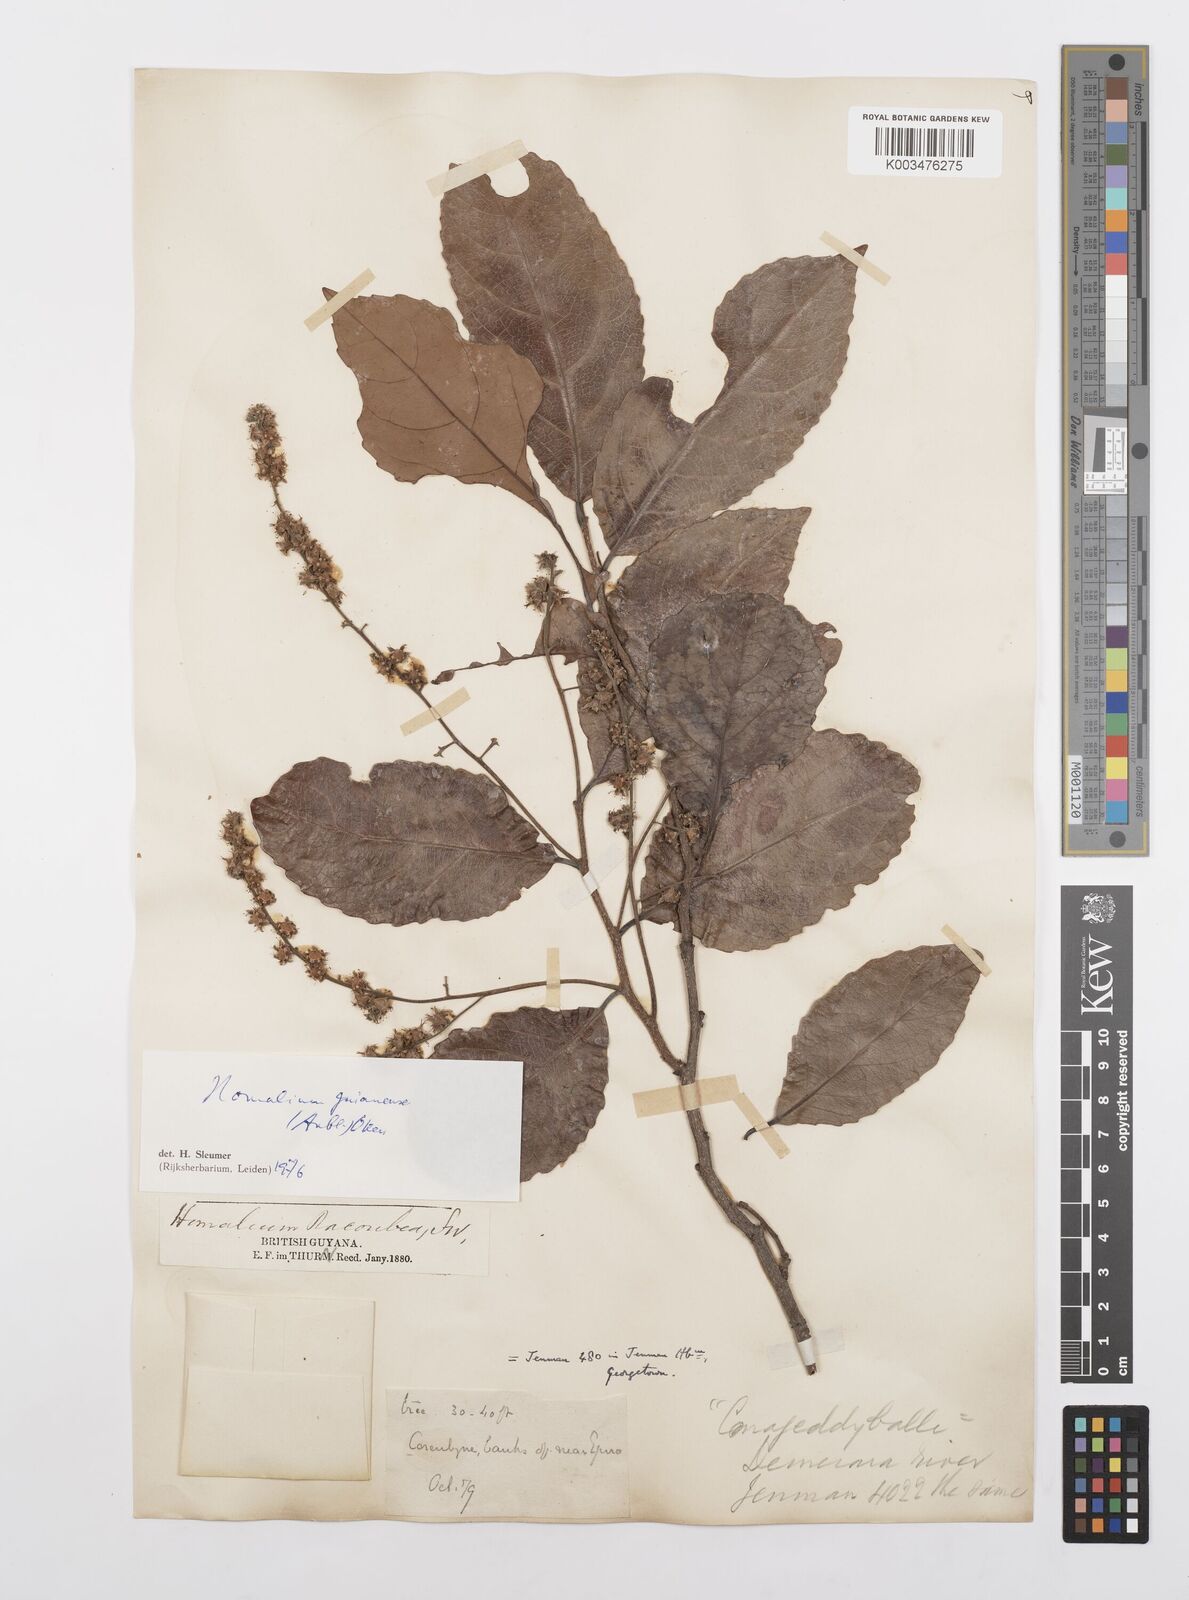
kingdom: Plantae
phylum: Tracheophyta
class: Magnoliopsida
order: Malpighiales
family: Salicaceae
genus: Homalium
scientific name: Homalium guianense
